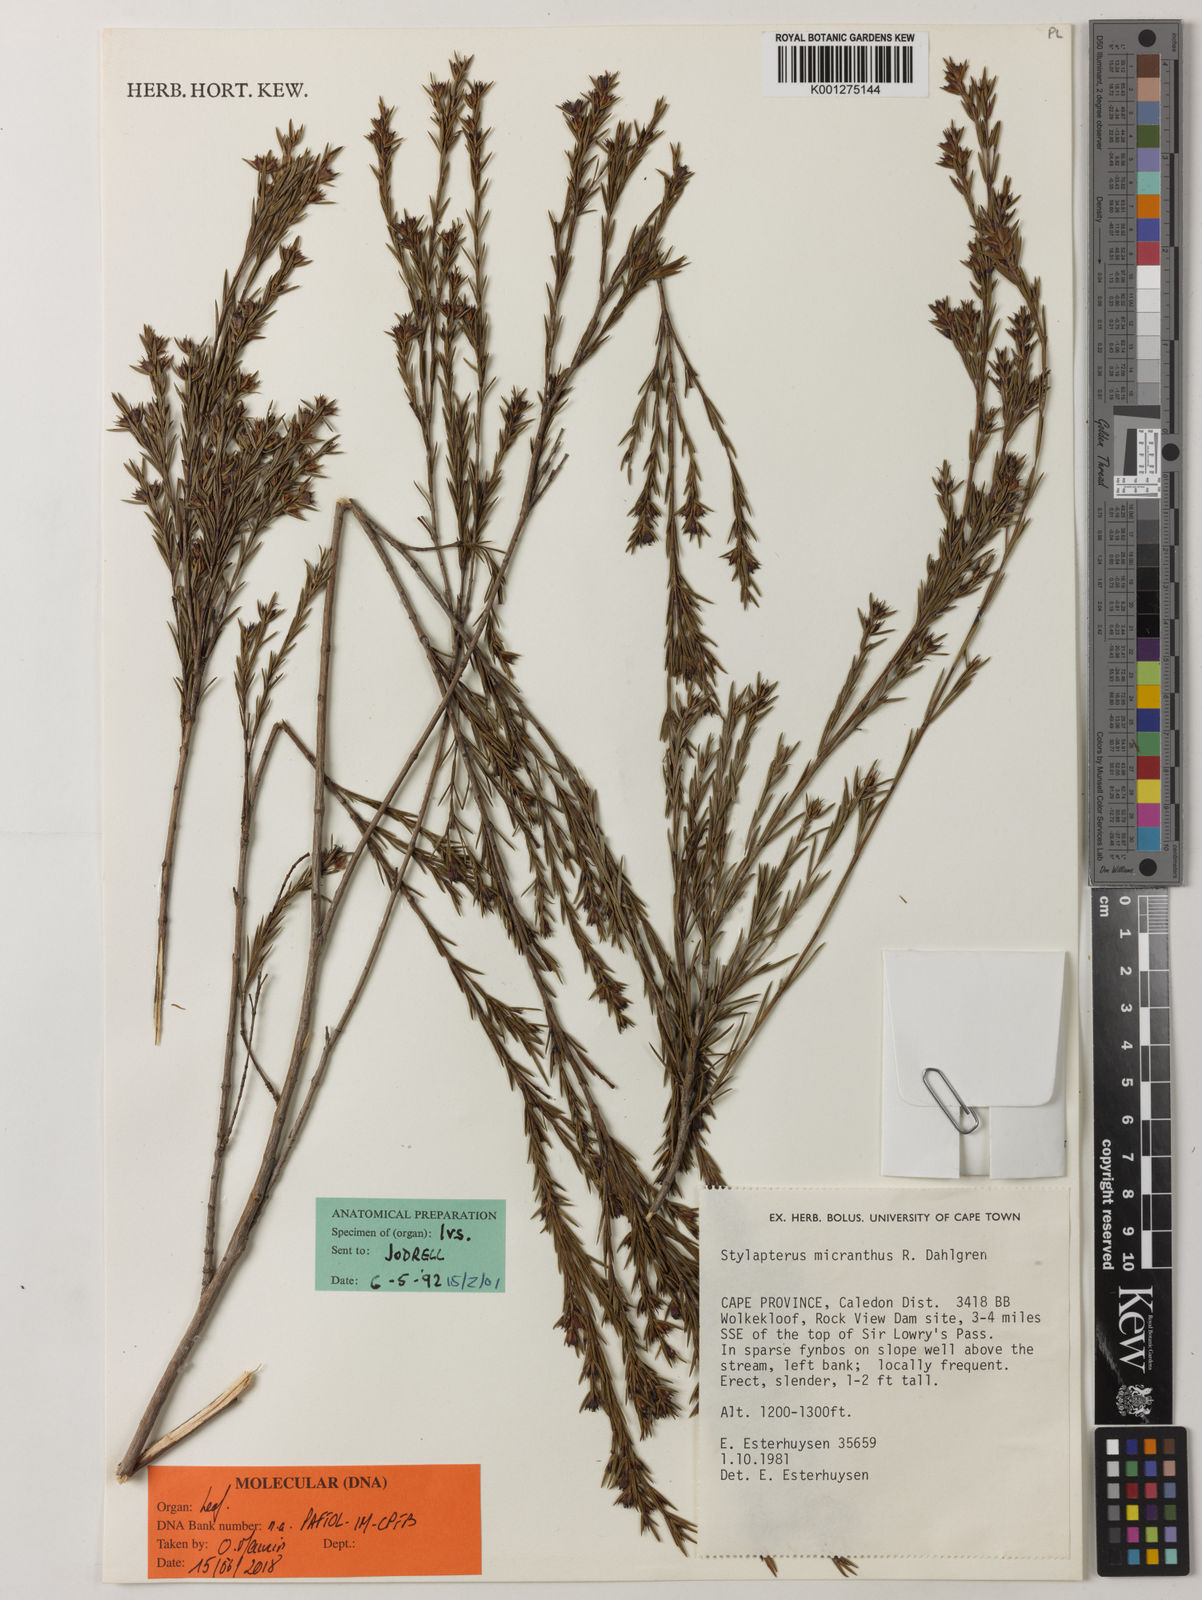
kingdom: Plantae
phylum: Tracheophyta
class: Magnoliopsida
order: Myrtales
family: Penaeaceae
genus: Stylapterus
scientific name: Stylapterus micranthus
